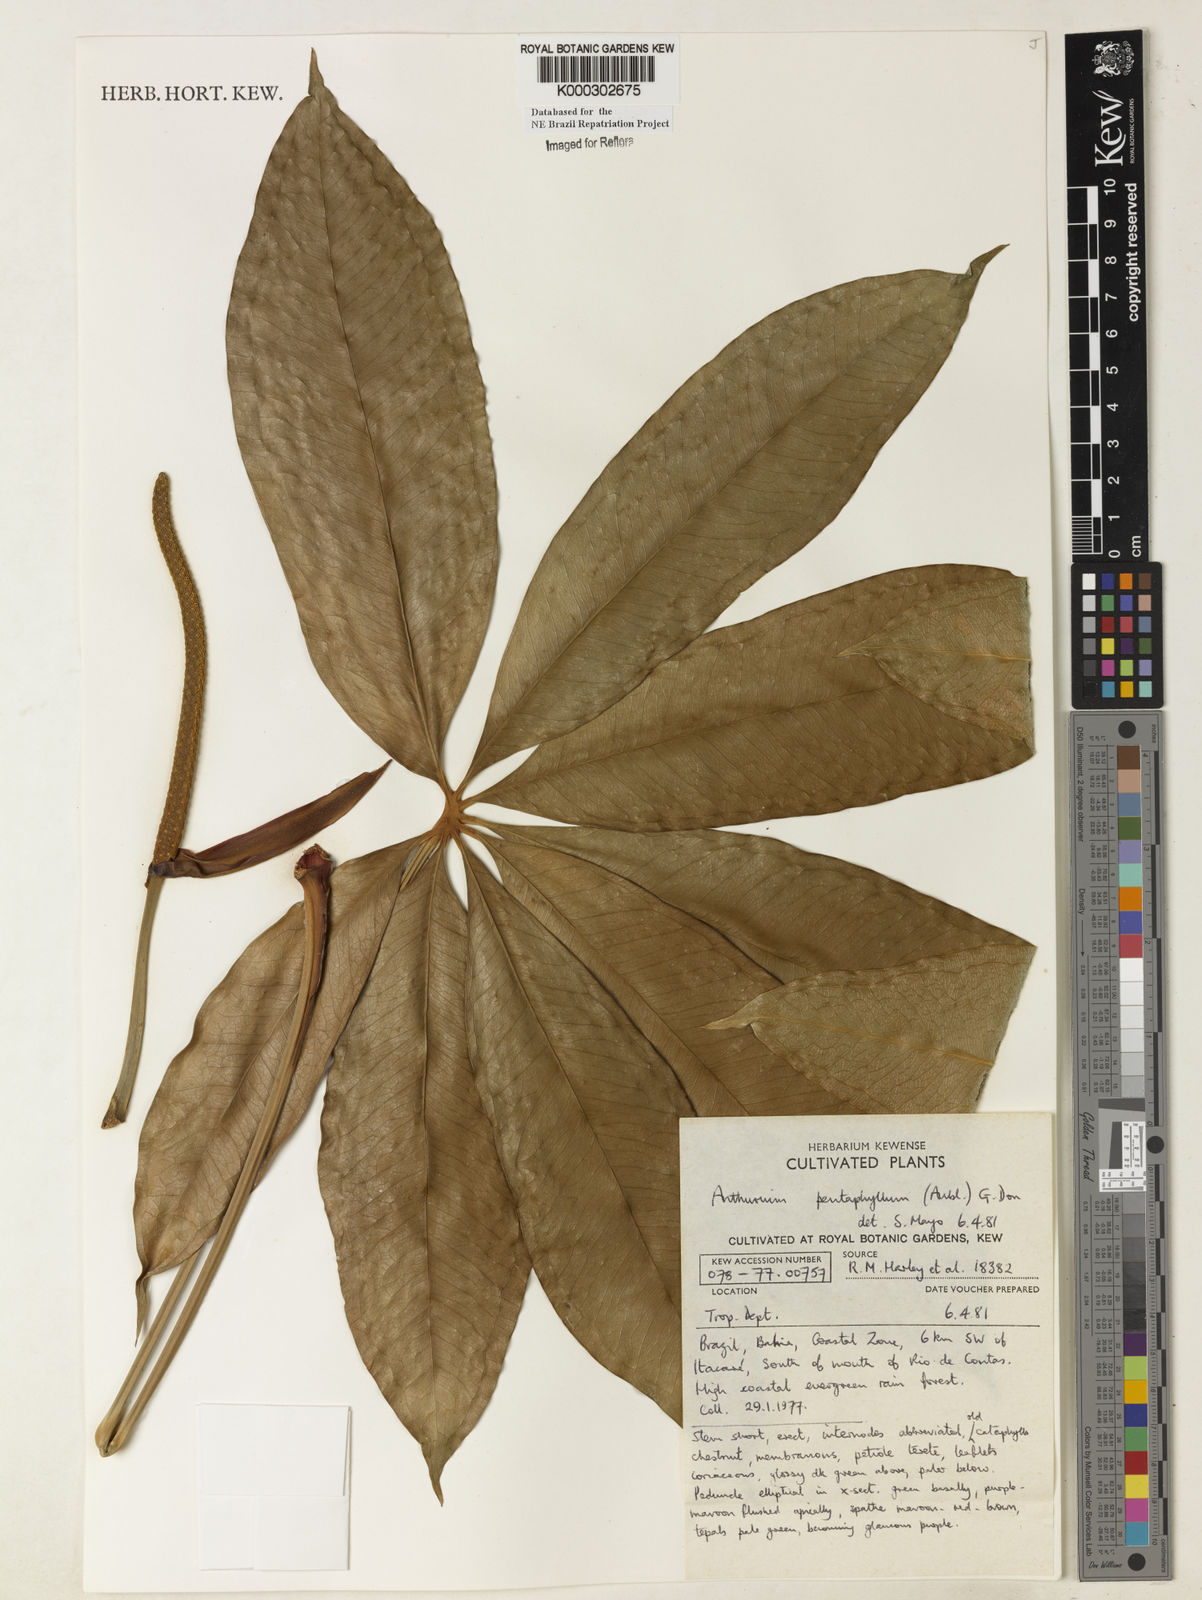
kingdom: Plantae
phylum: Tracheophyta
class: Liliopsida
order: Alismatales
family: Araceae
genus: Anthurium
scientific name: Anthurium pentaphyllum
